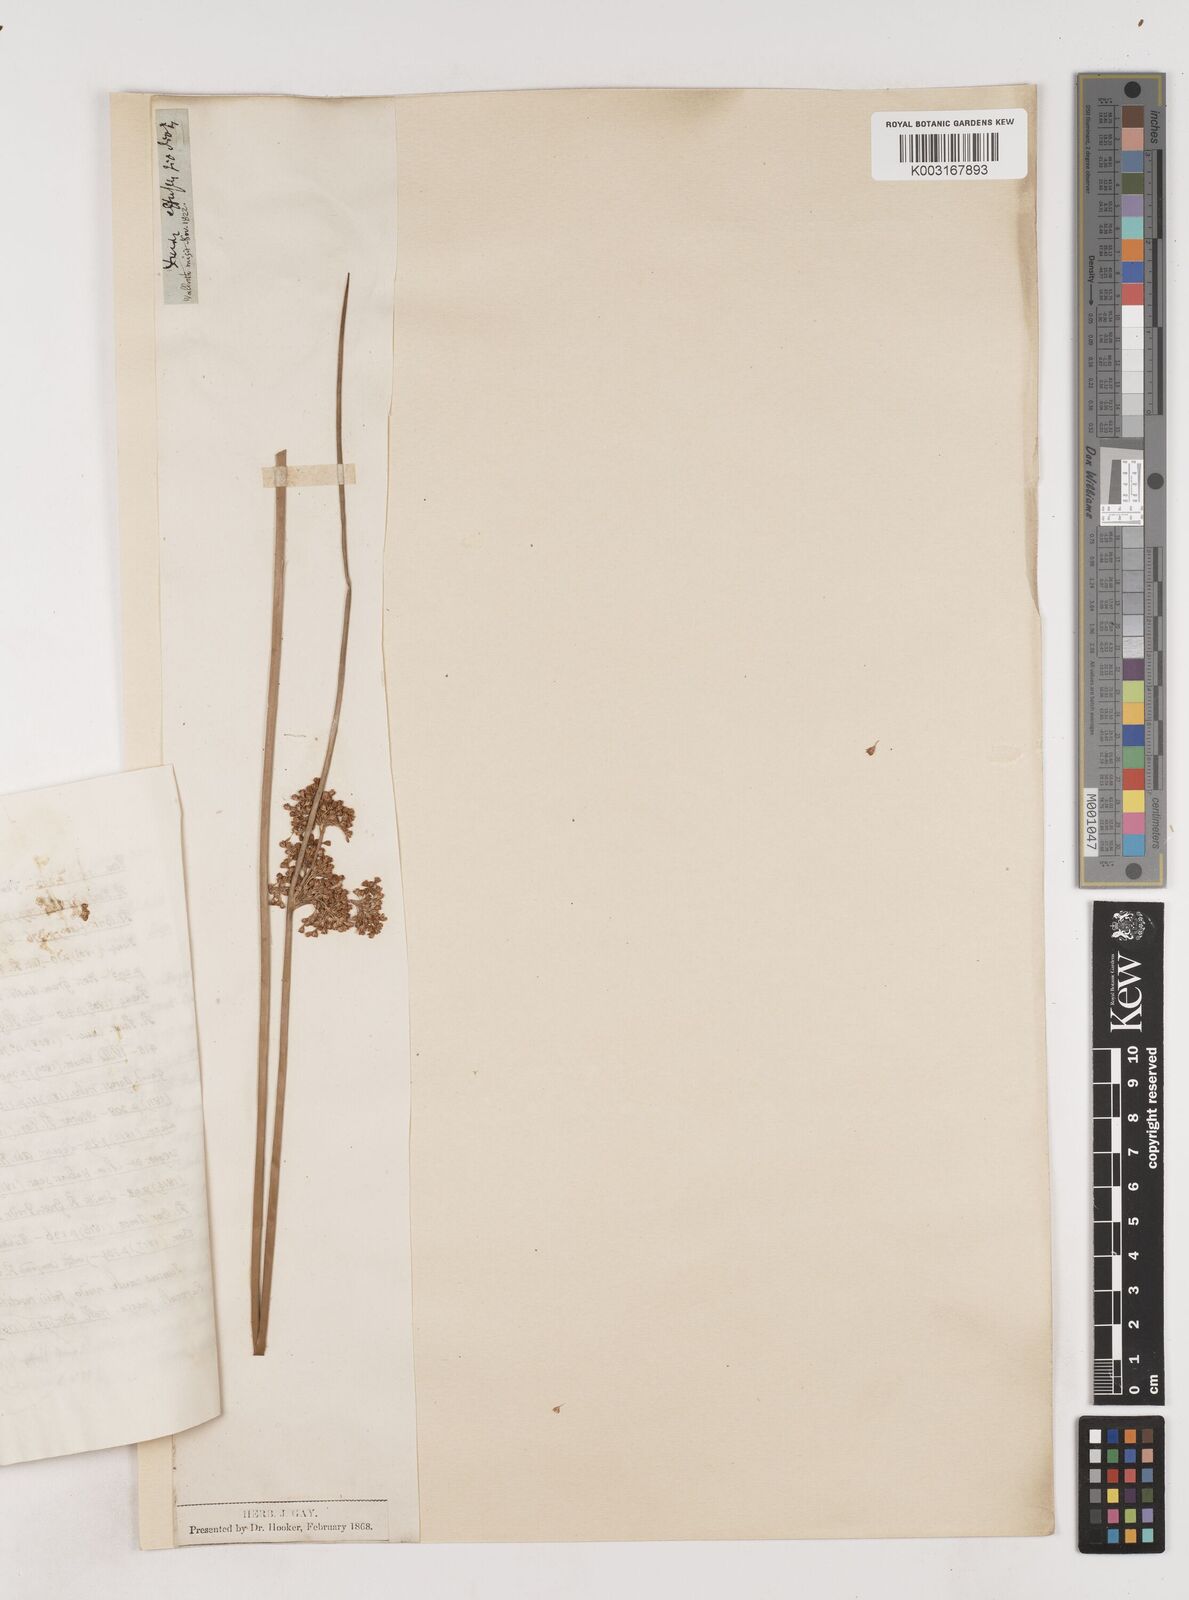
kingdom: Plantae
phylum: Tracheophyta
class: Liliopsida
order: Poales
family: Juncaceae
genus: Juncus
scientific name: Juncus effusus
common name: Soft rush
